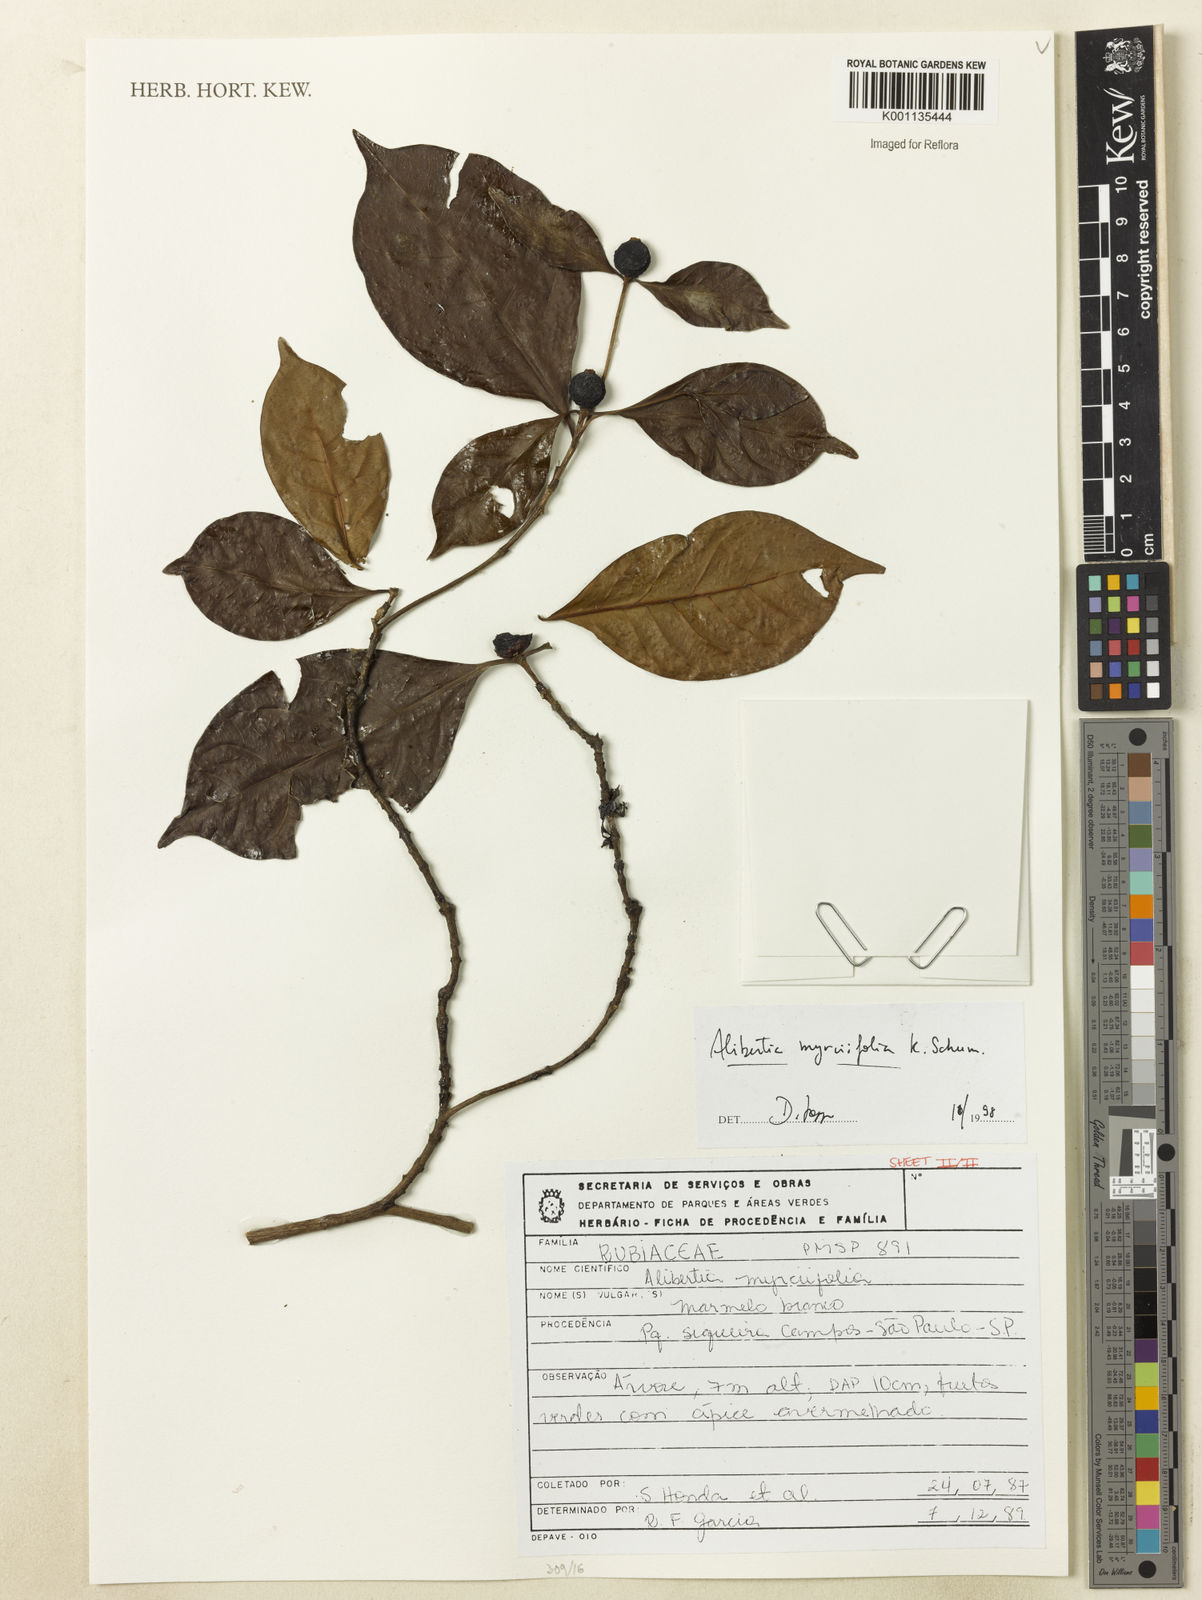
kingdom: Plantae
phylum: Tracheophyta
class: Magnoliopsida
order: Gentianales
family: Rubiaceae
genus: Cordiera
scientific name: Cordiera myrciifolia
